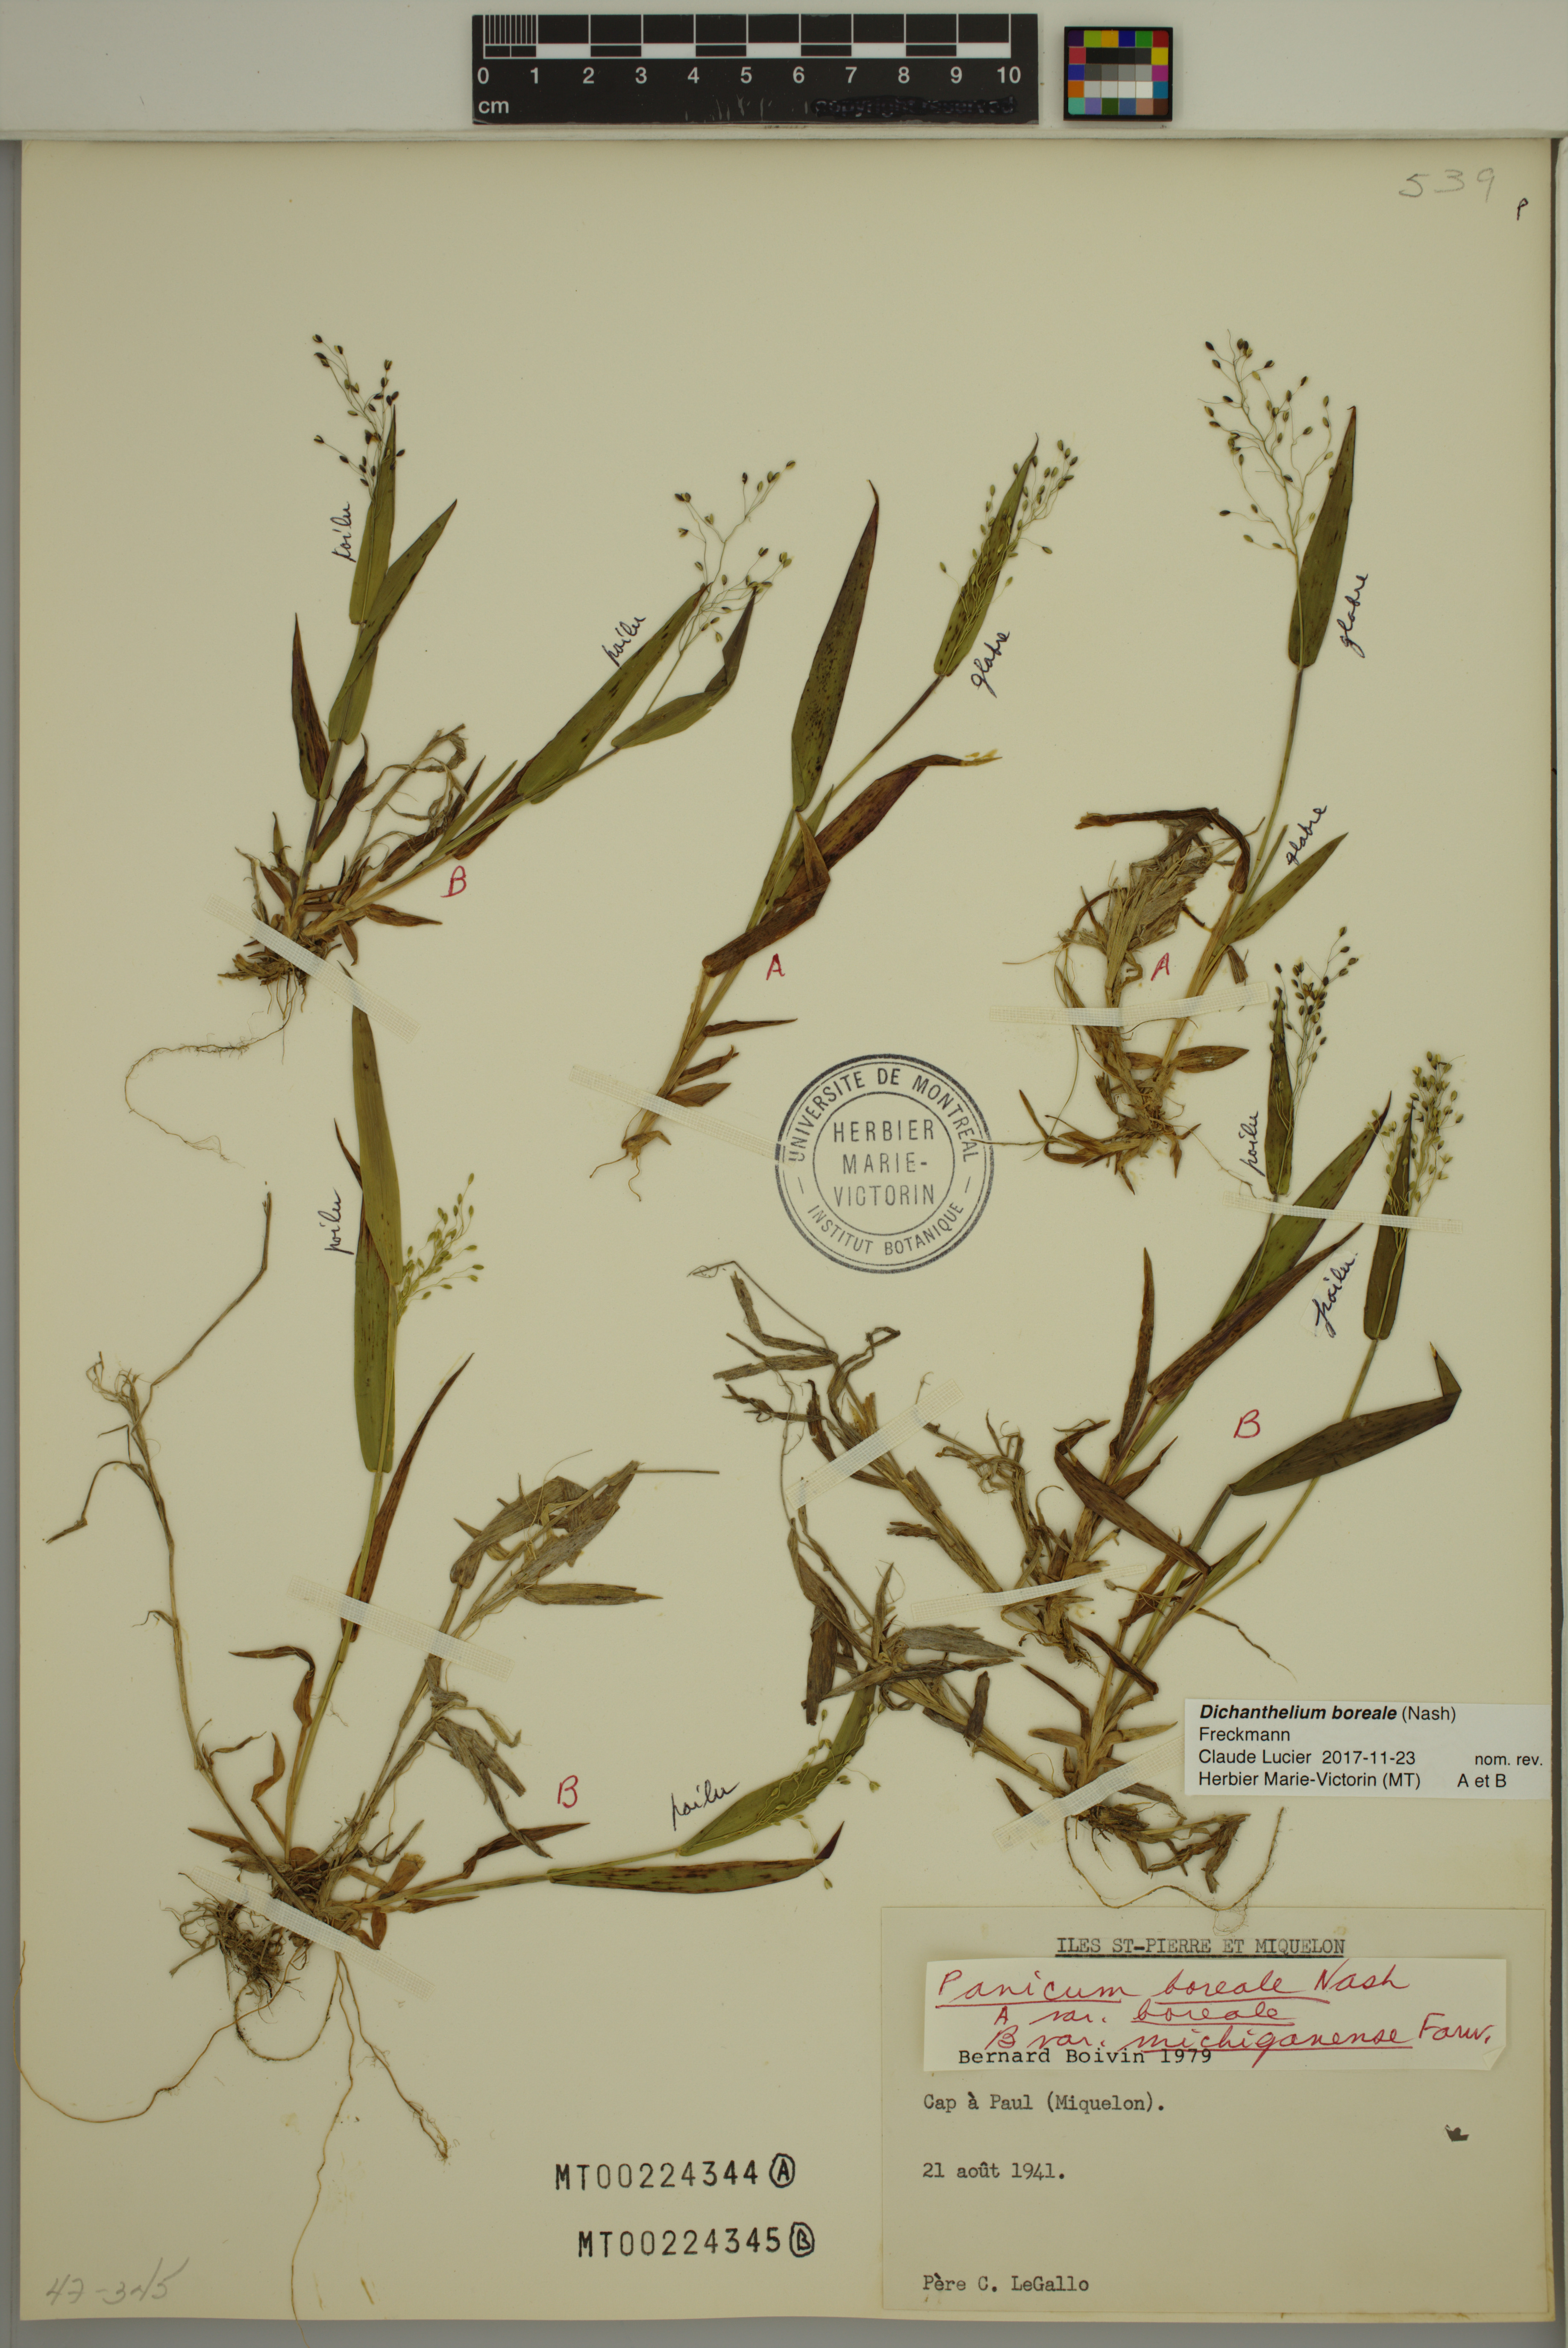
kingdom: Plantae
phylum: Tracheophyta
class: Liliopsida
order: Poales
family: Poaceae
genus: Dichanthelium
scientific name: Dichanthelium boreale
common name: Northern panicgrass
